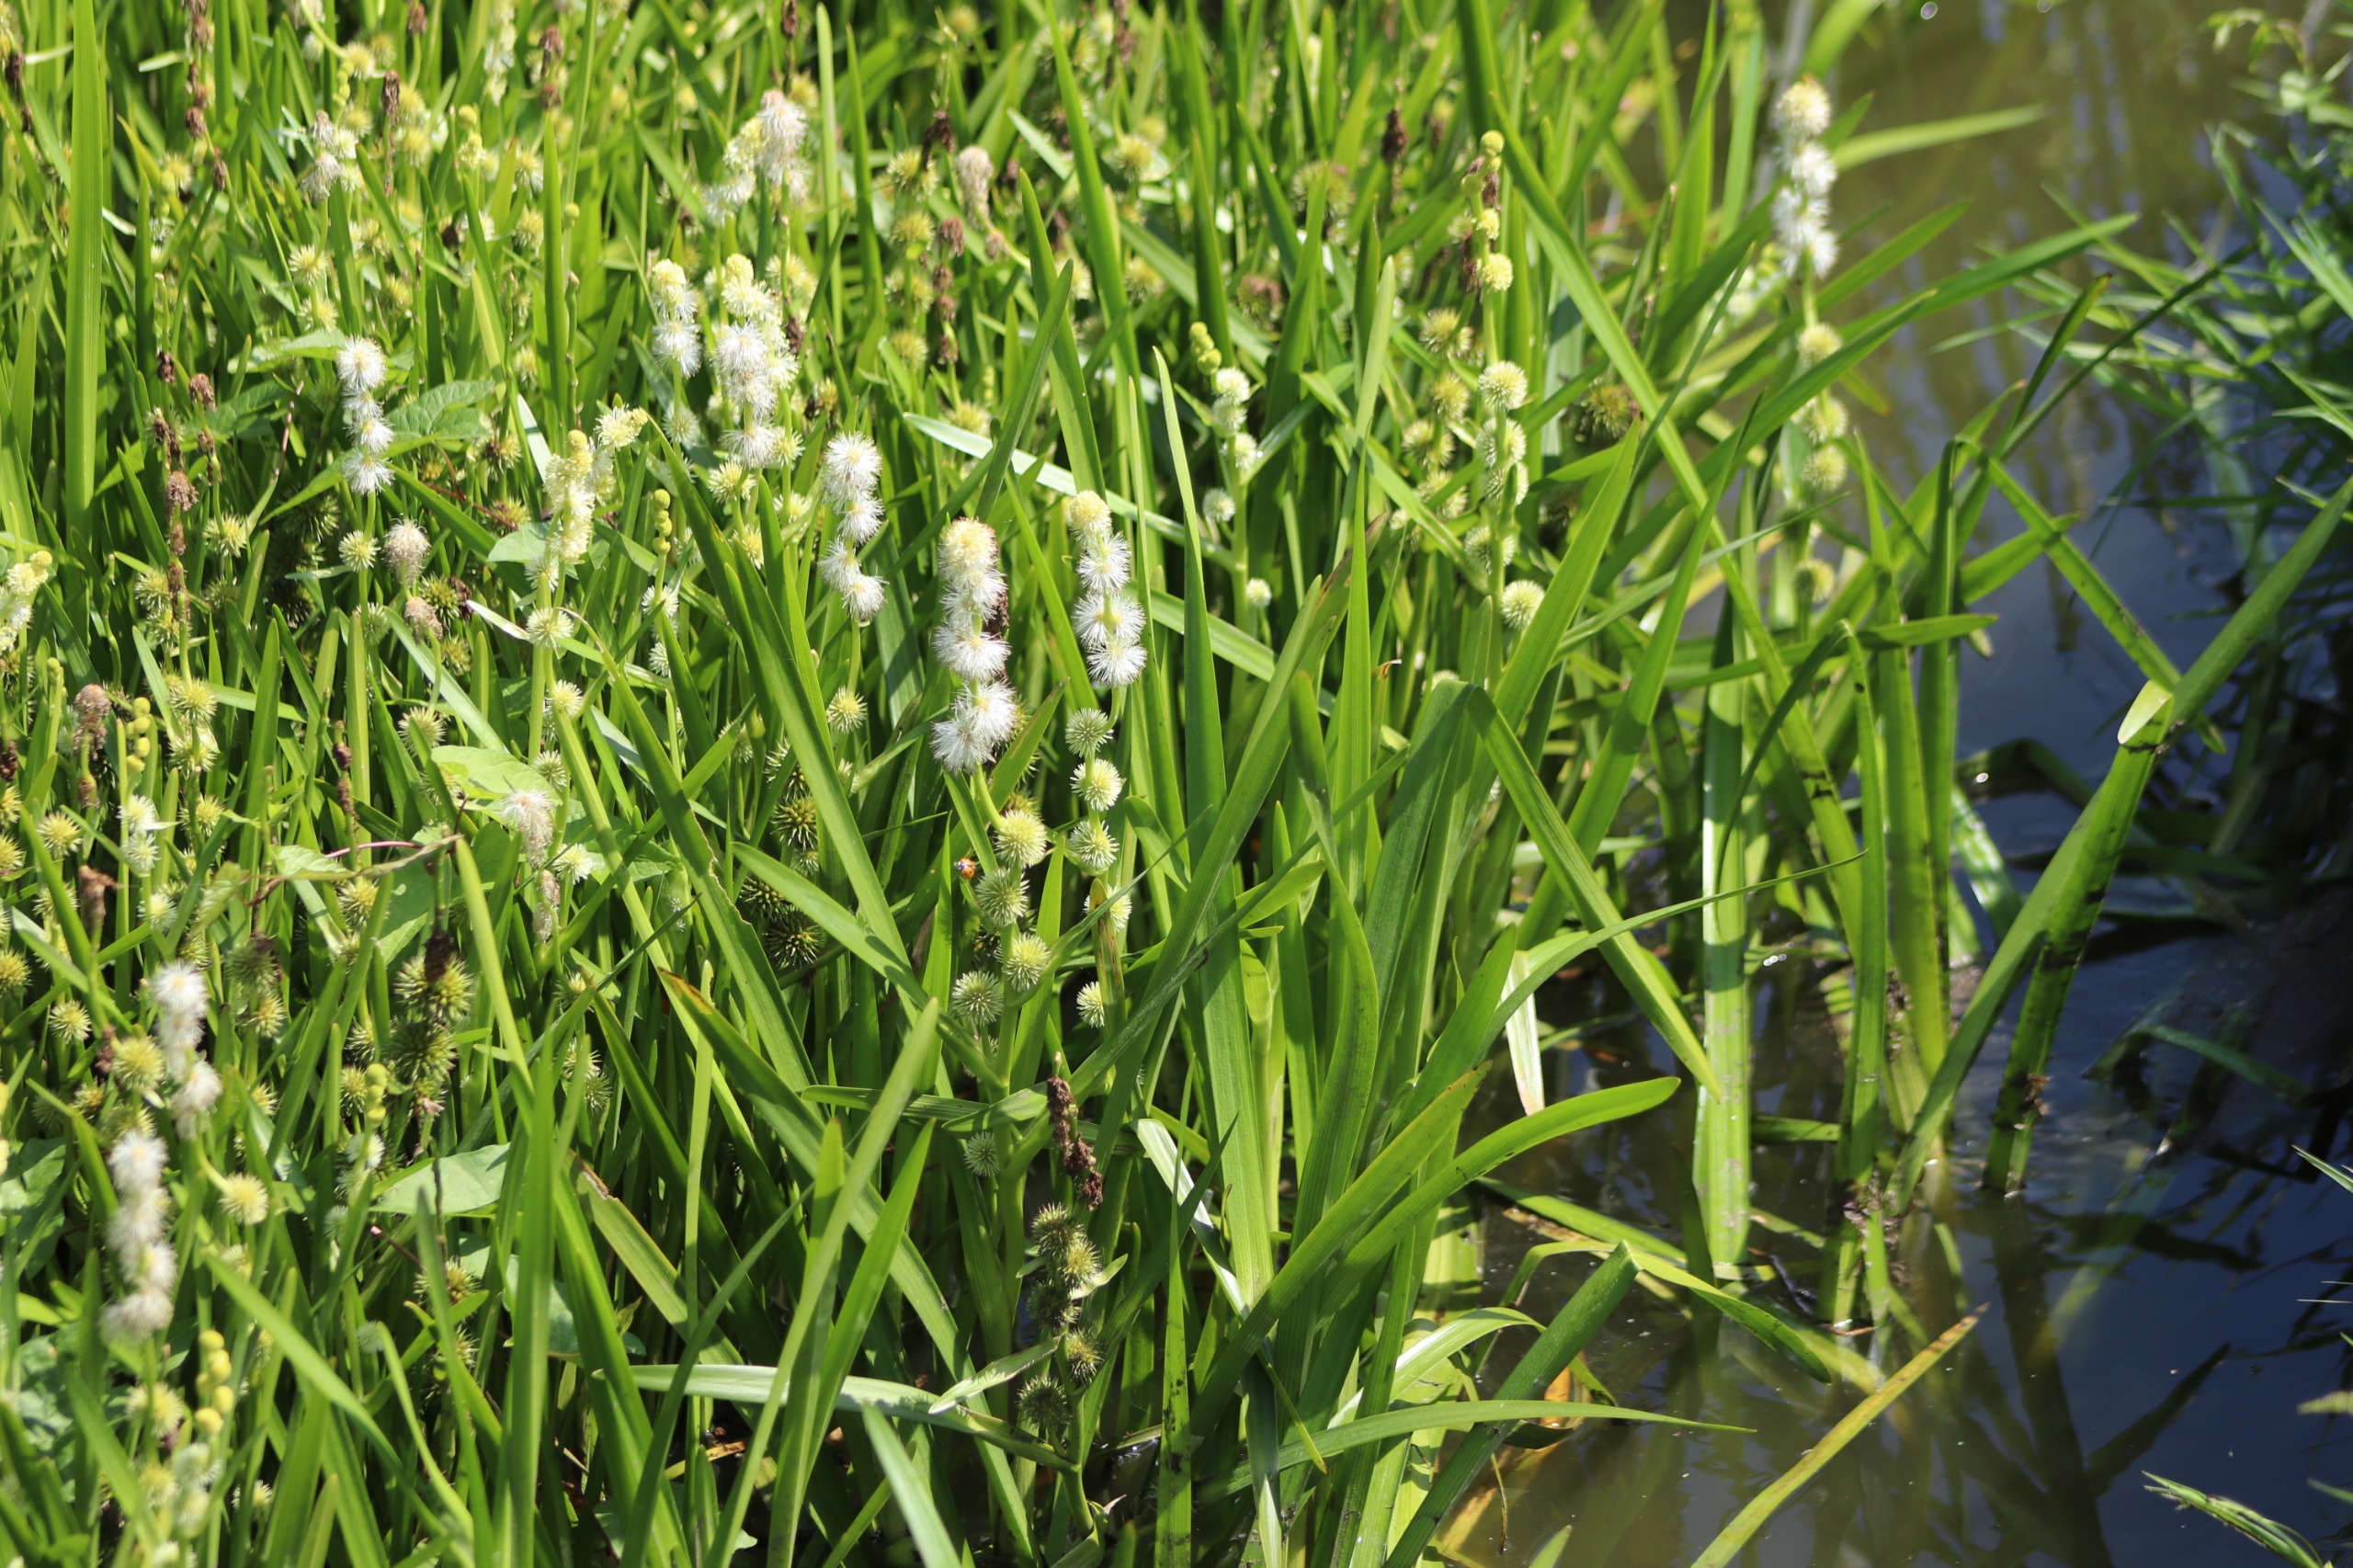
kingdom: Plantae
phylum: Tracheophyta
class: Liliopsida
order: Poales
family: Typhaceae
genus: Sparganium
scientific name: Sparganium emersum
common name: Enkelt pindsvineknop
